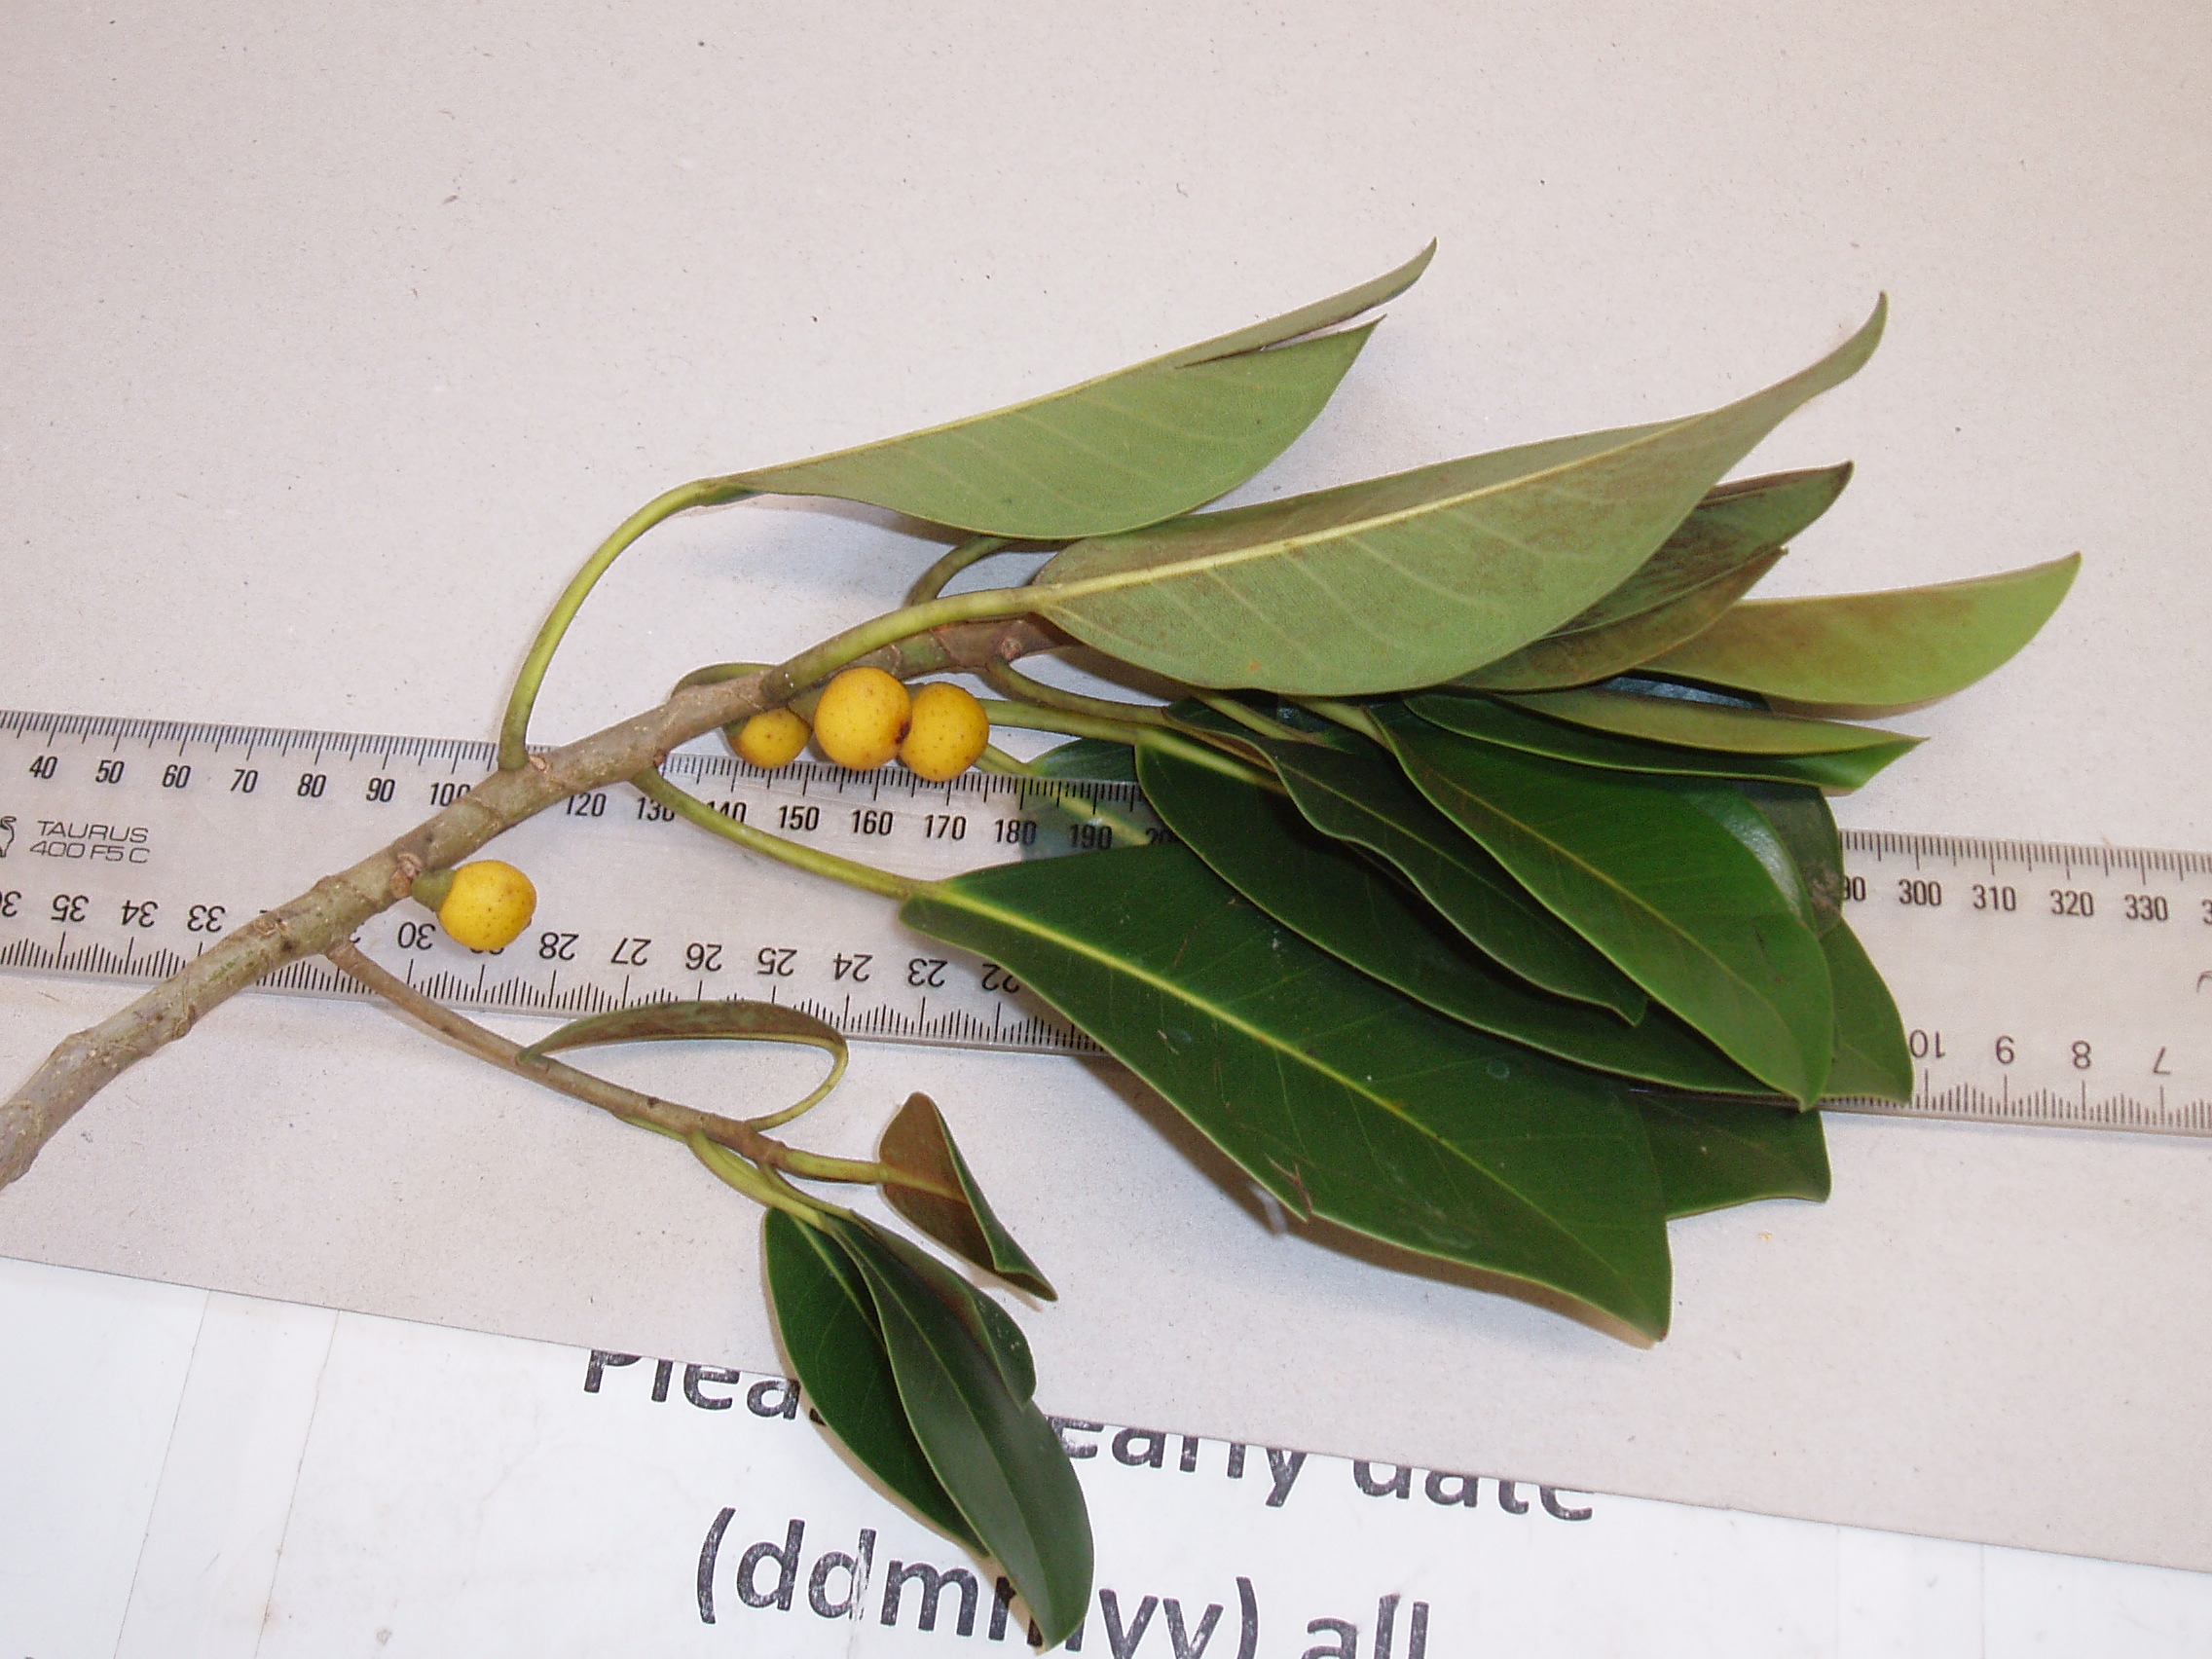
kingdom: Plantae
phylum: Tracheophyta
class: Magnoliopsida
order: Rosales
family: Moraceae
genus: Ficus
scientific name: Ficus rubiginosa
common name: Port jackson fig
